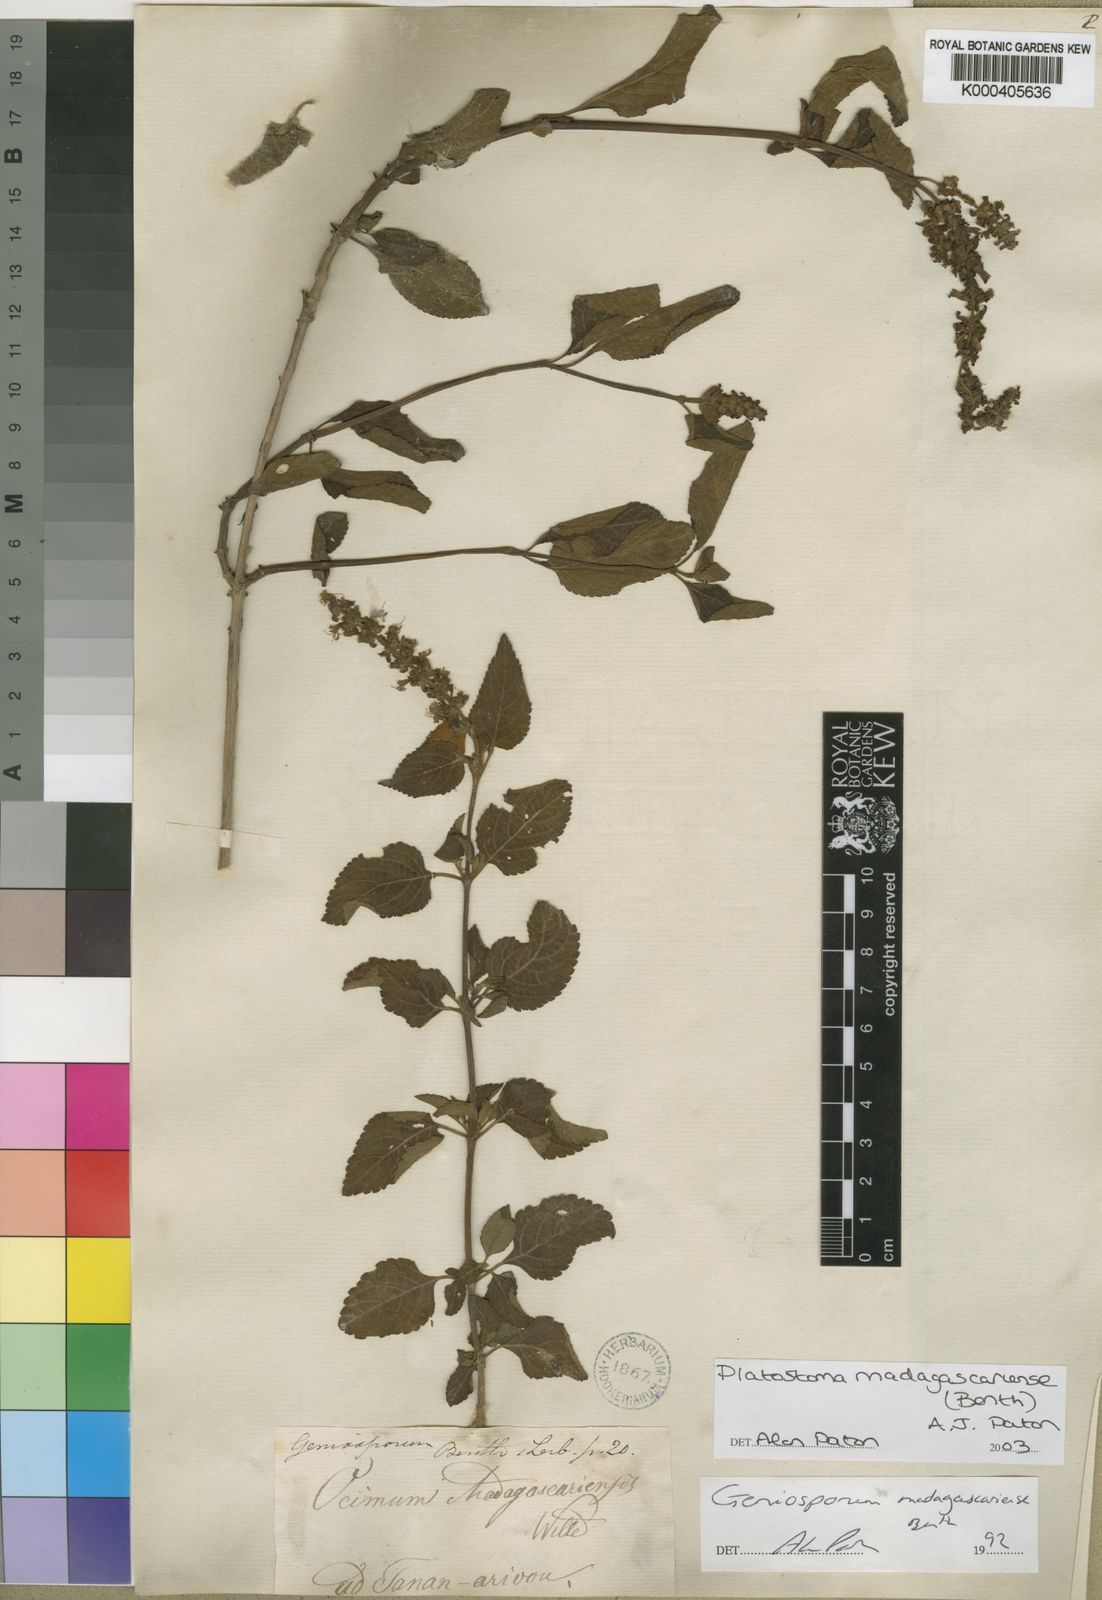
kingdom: Plantae
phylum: Tracheophyta
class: Magnoliopsida
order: Lamiales
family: Lamiaceae
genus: Platostoma
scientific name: Platostoma madagascariense
